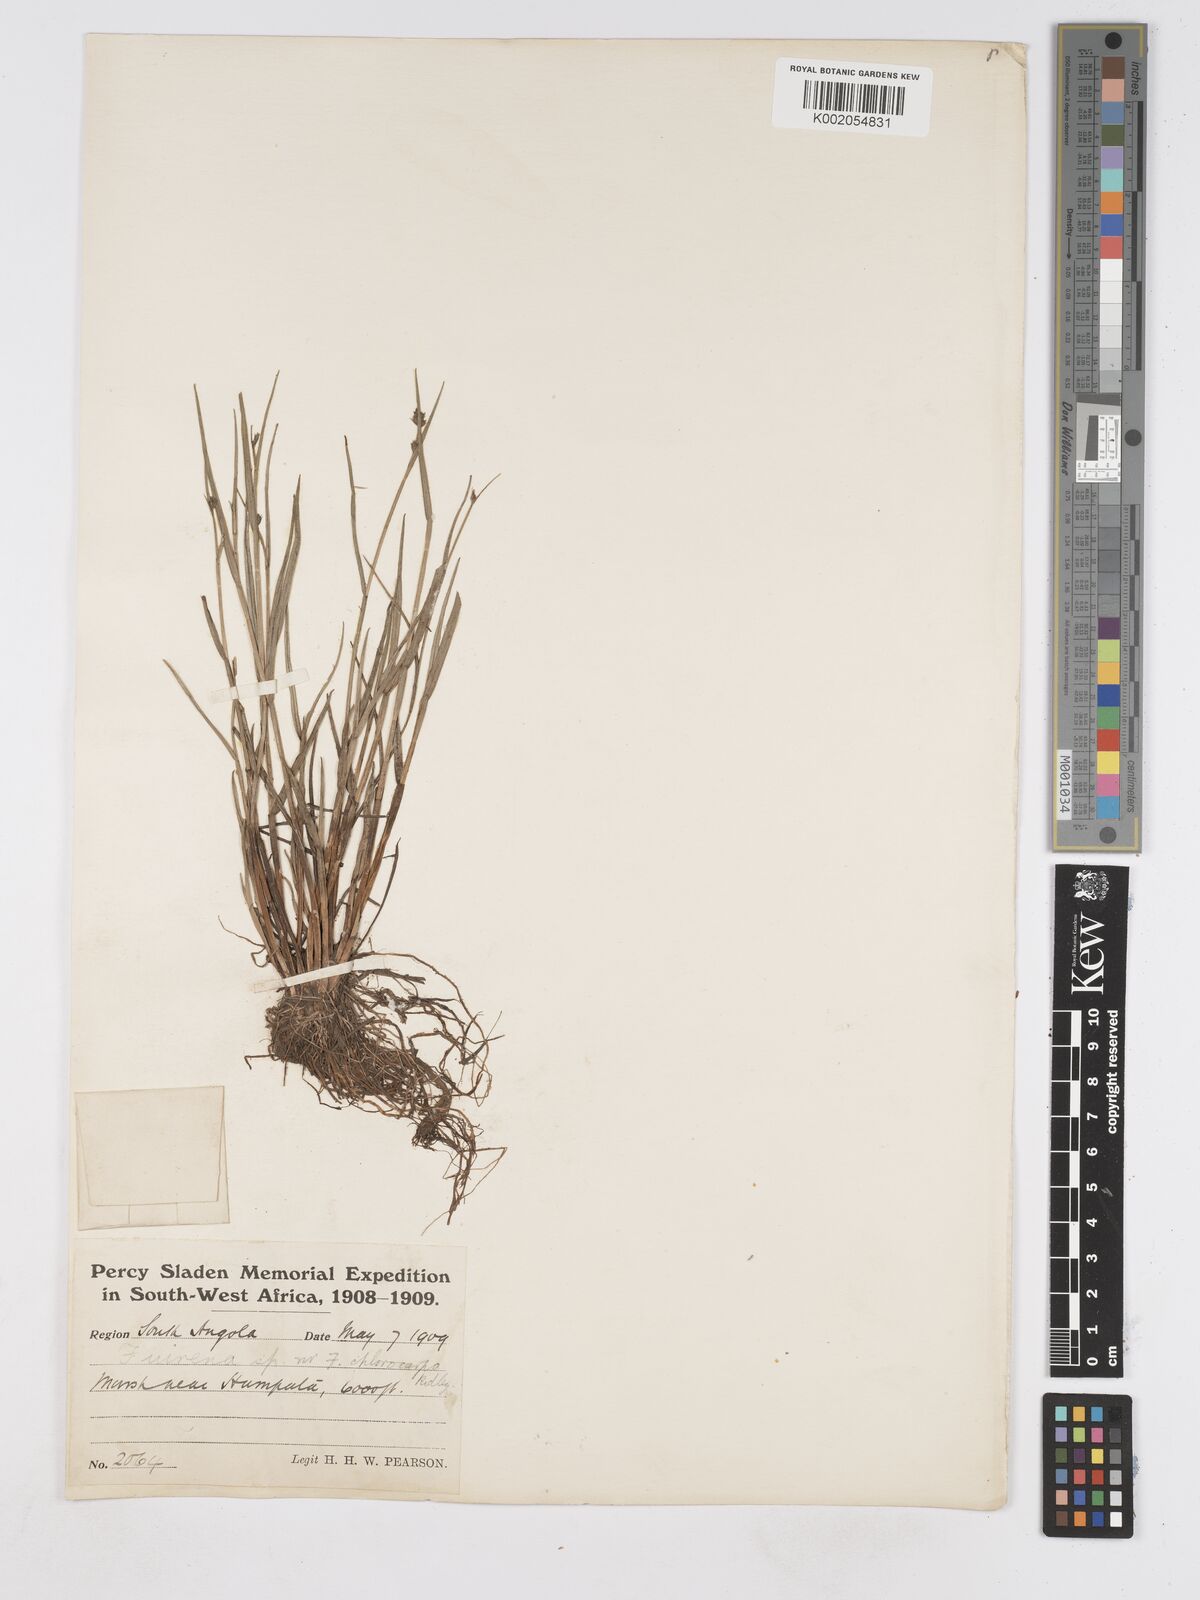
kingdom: Plantae
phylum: Tracheophyta
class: Liliopsida
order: Poales
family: Cyperaceae
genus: Fuirena
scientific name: Fuirena stricta
